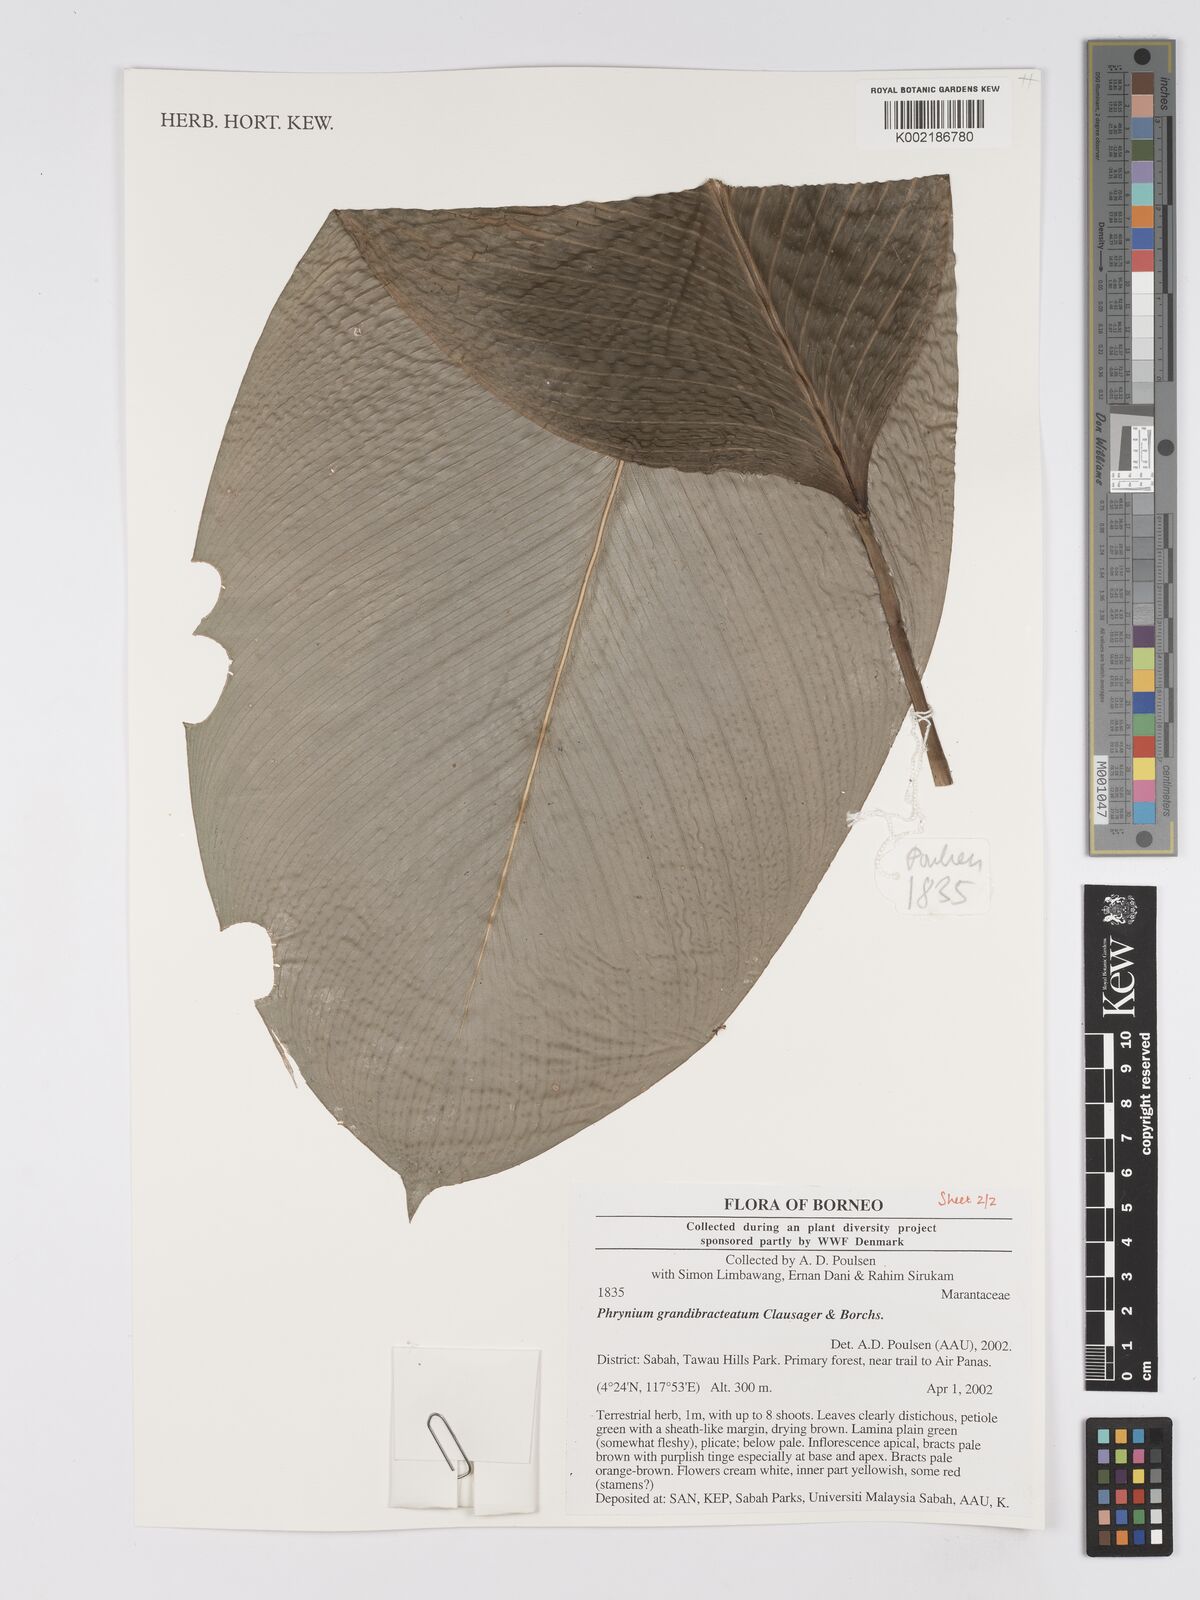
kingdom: Plantae
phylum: Tracheophyta
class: Liliopsida
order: Zingiberales
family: Marantaceae
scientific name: Marantaceae
